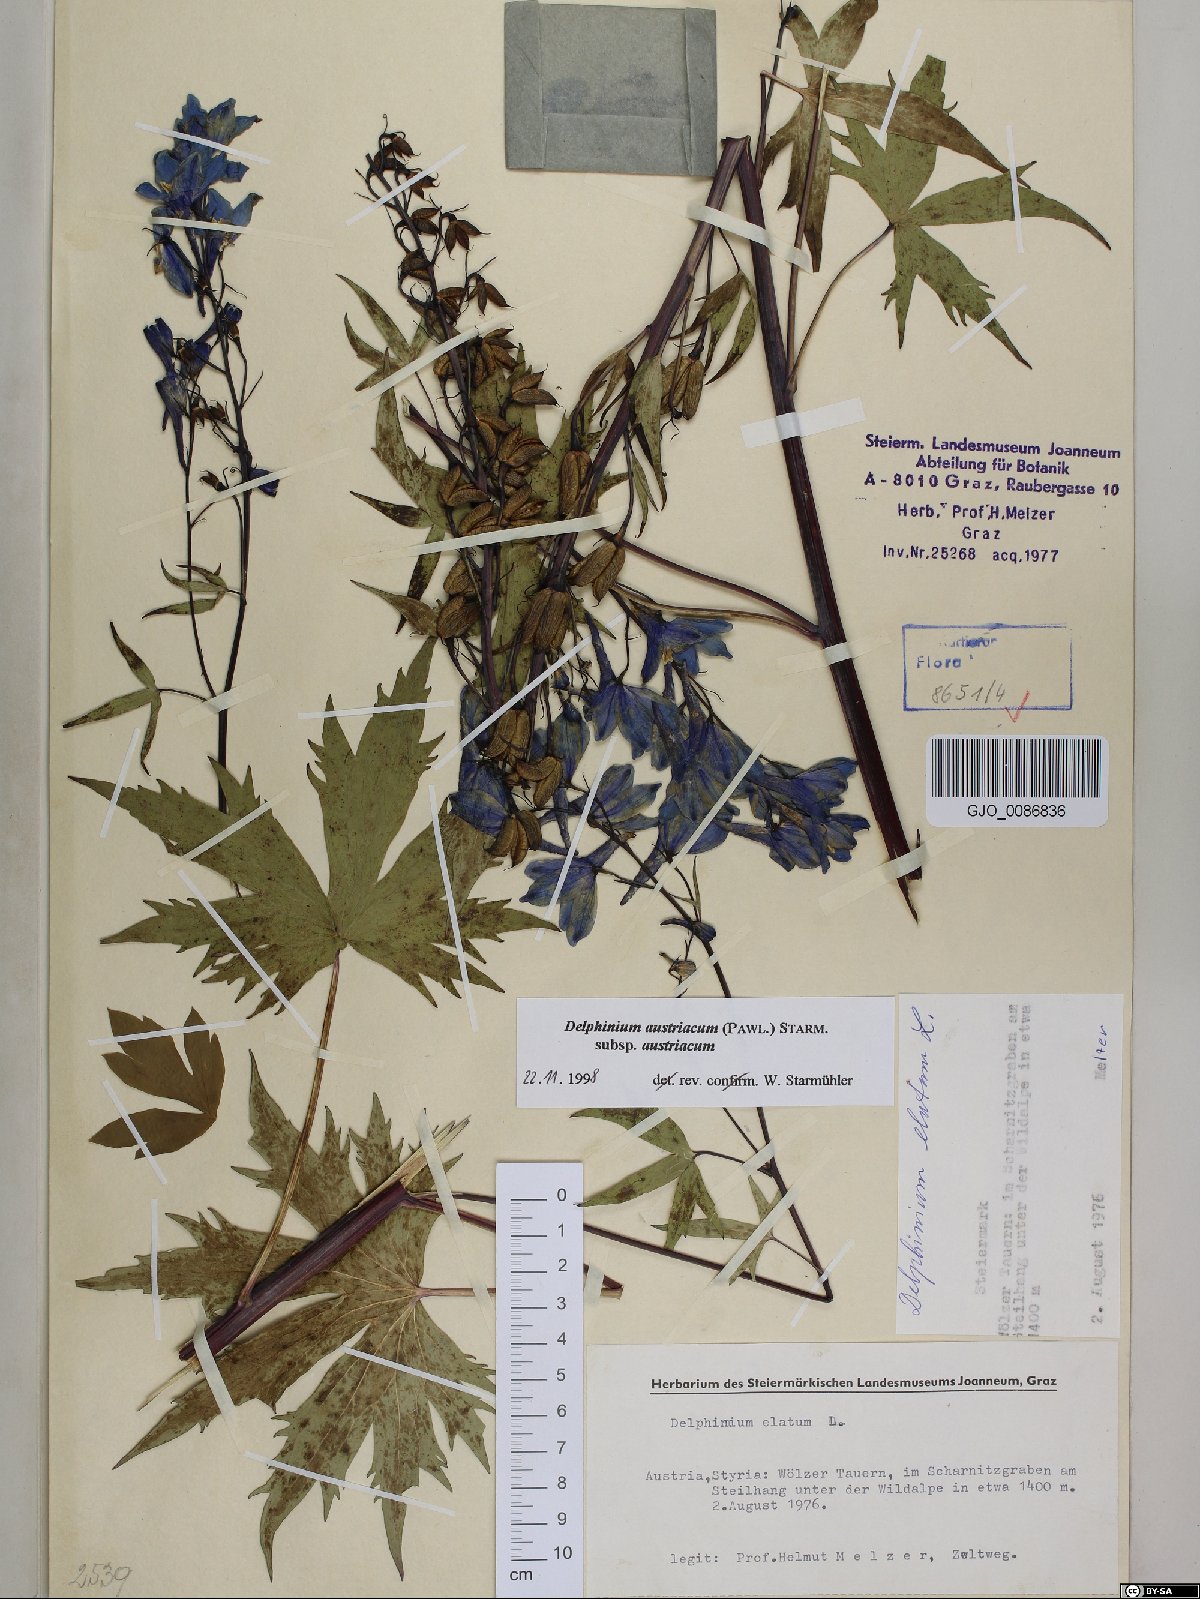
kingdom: Plantae
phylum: Tracheophyta
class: Magnoliopsida
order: Ranunculales
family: Ranunculaceae
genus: Delphinium
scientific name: Delphinium austriacum
